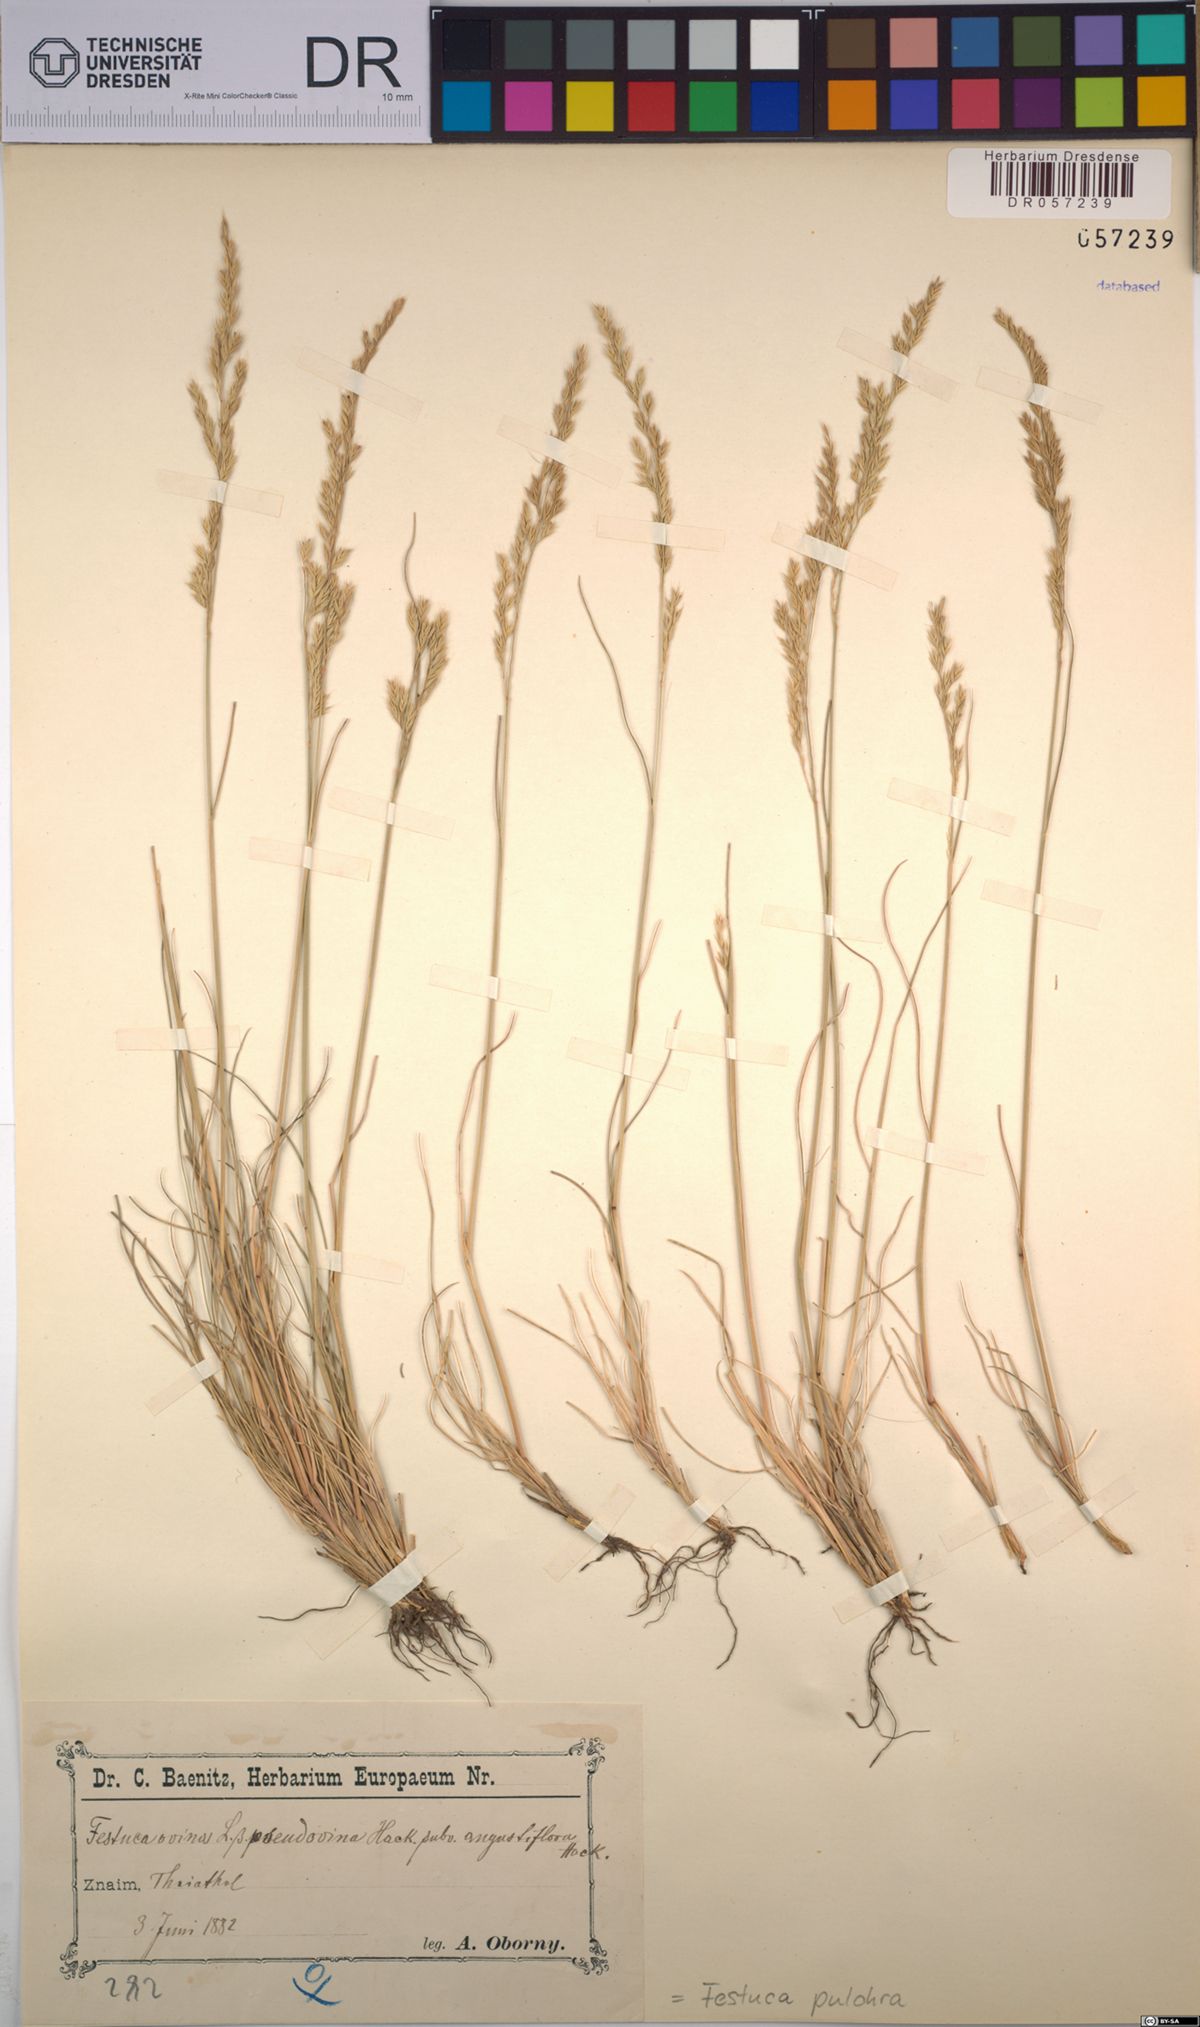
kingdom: Plantae
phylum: Tracheophyta
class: Liliopsida
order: Poales
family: Poaceae
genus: Festuca
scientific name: Festuca pulchra
